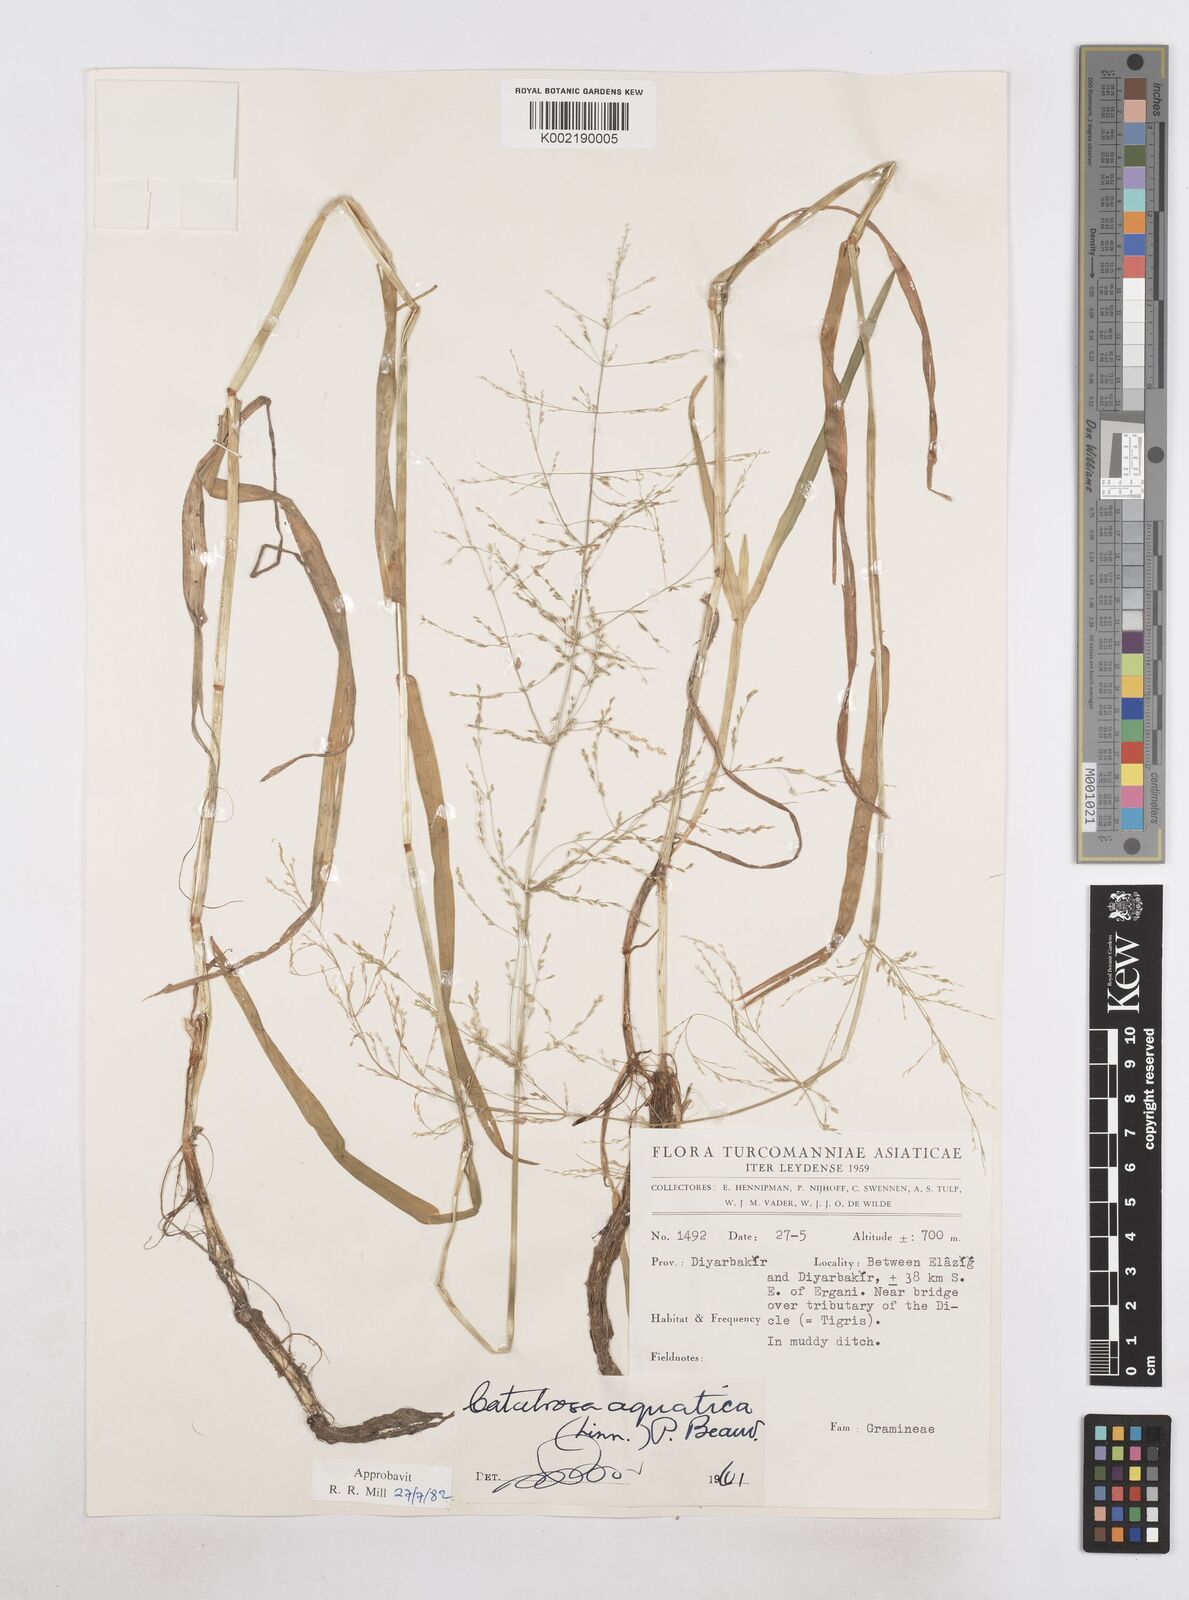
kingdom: Plantae
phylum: Tracheophyta
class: Liliopsida
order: Poales
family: Poaceae
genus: Catabrosa
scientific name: Catabrosa aquatica
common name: Whorl-grass
